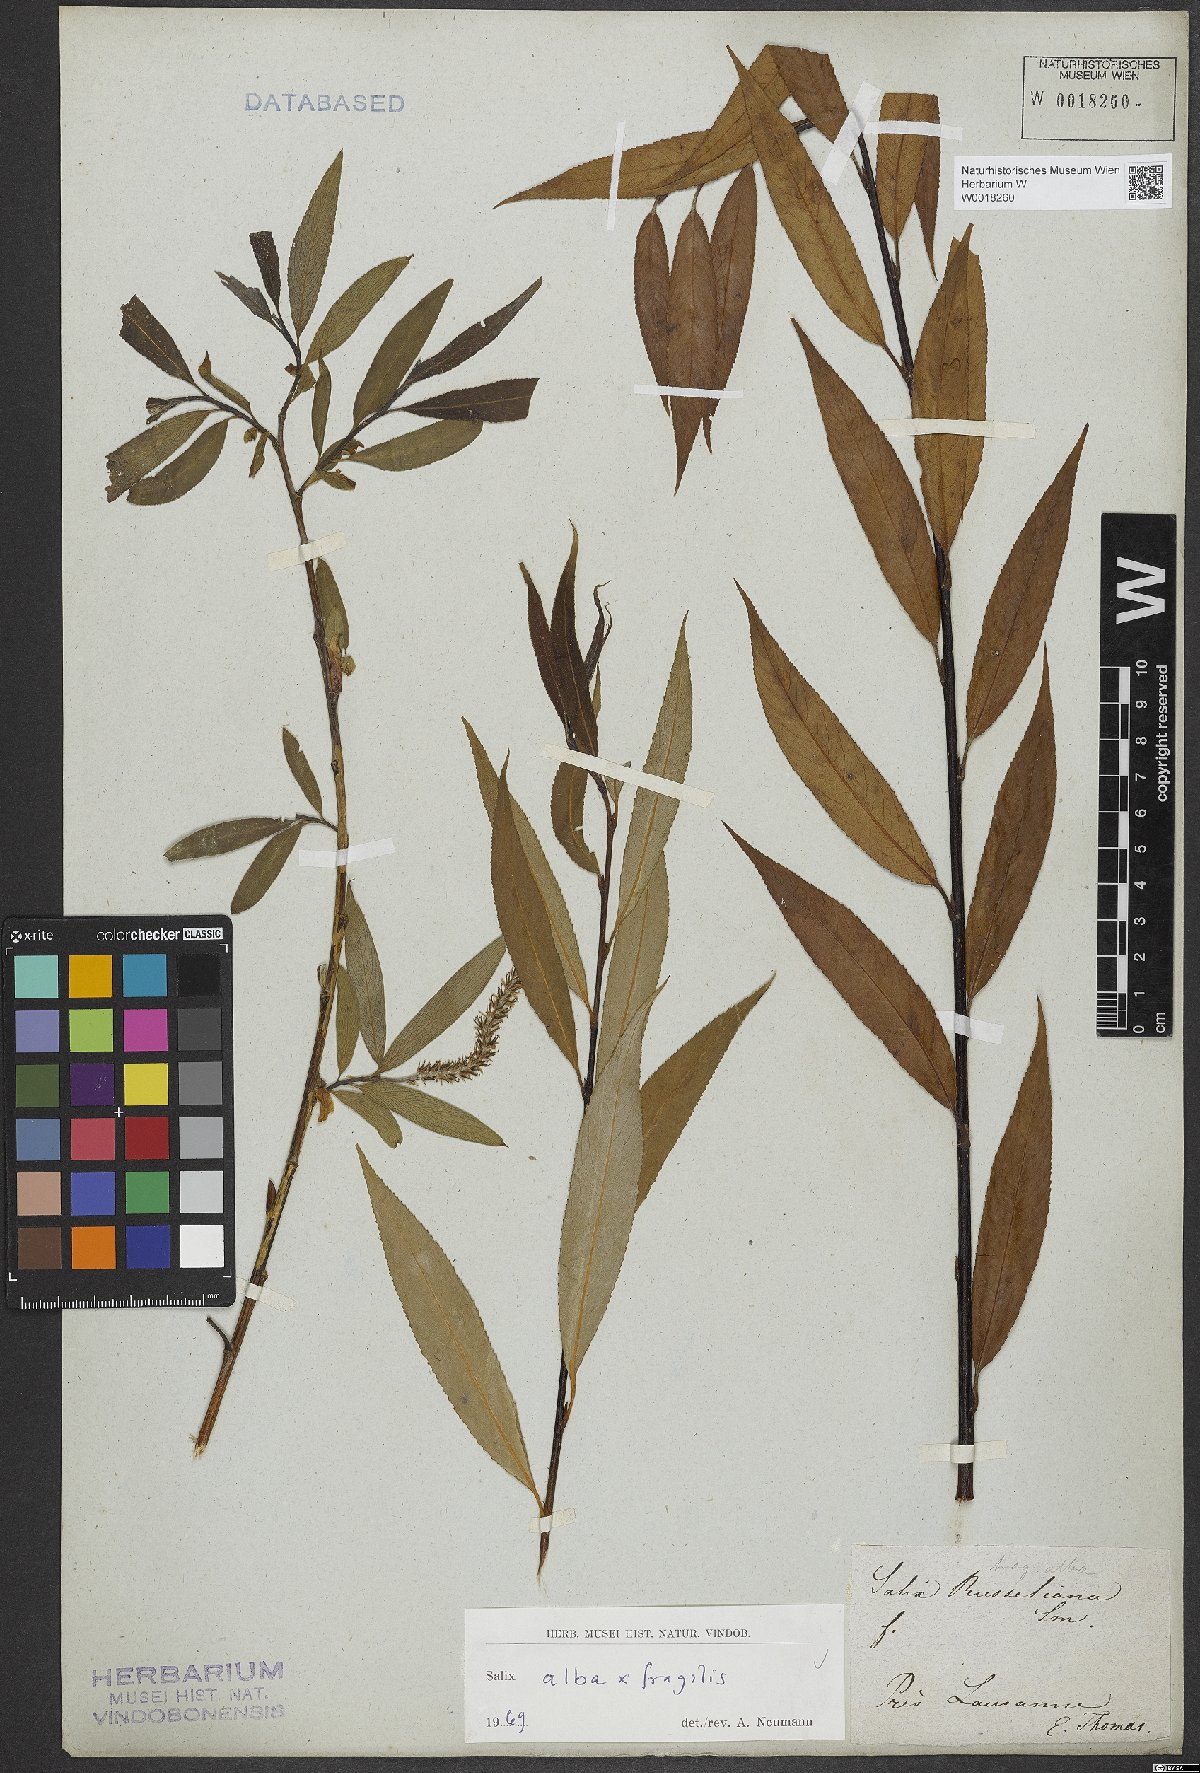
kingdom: Plantae
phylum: Tracheophyta
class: Magnoliopsida
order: Malpighiales
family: Salicaceae
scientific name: Salicaceae
